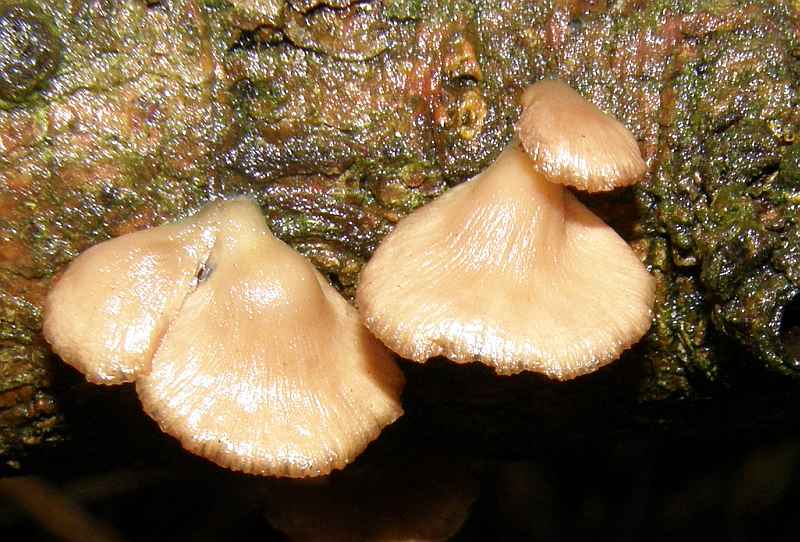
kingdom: Fungi
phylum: Basidiomycota
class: Agaricomycetes
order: Agaricales
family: Strophariaceae
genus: Deconica
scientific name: Deconica horizontalis
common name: ved-stråhat
